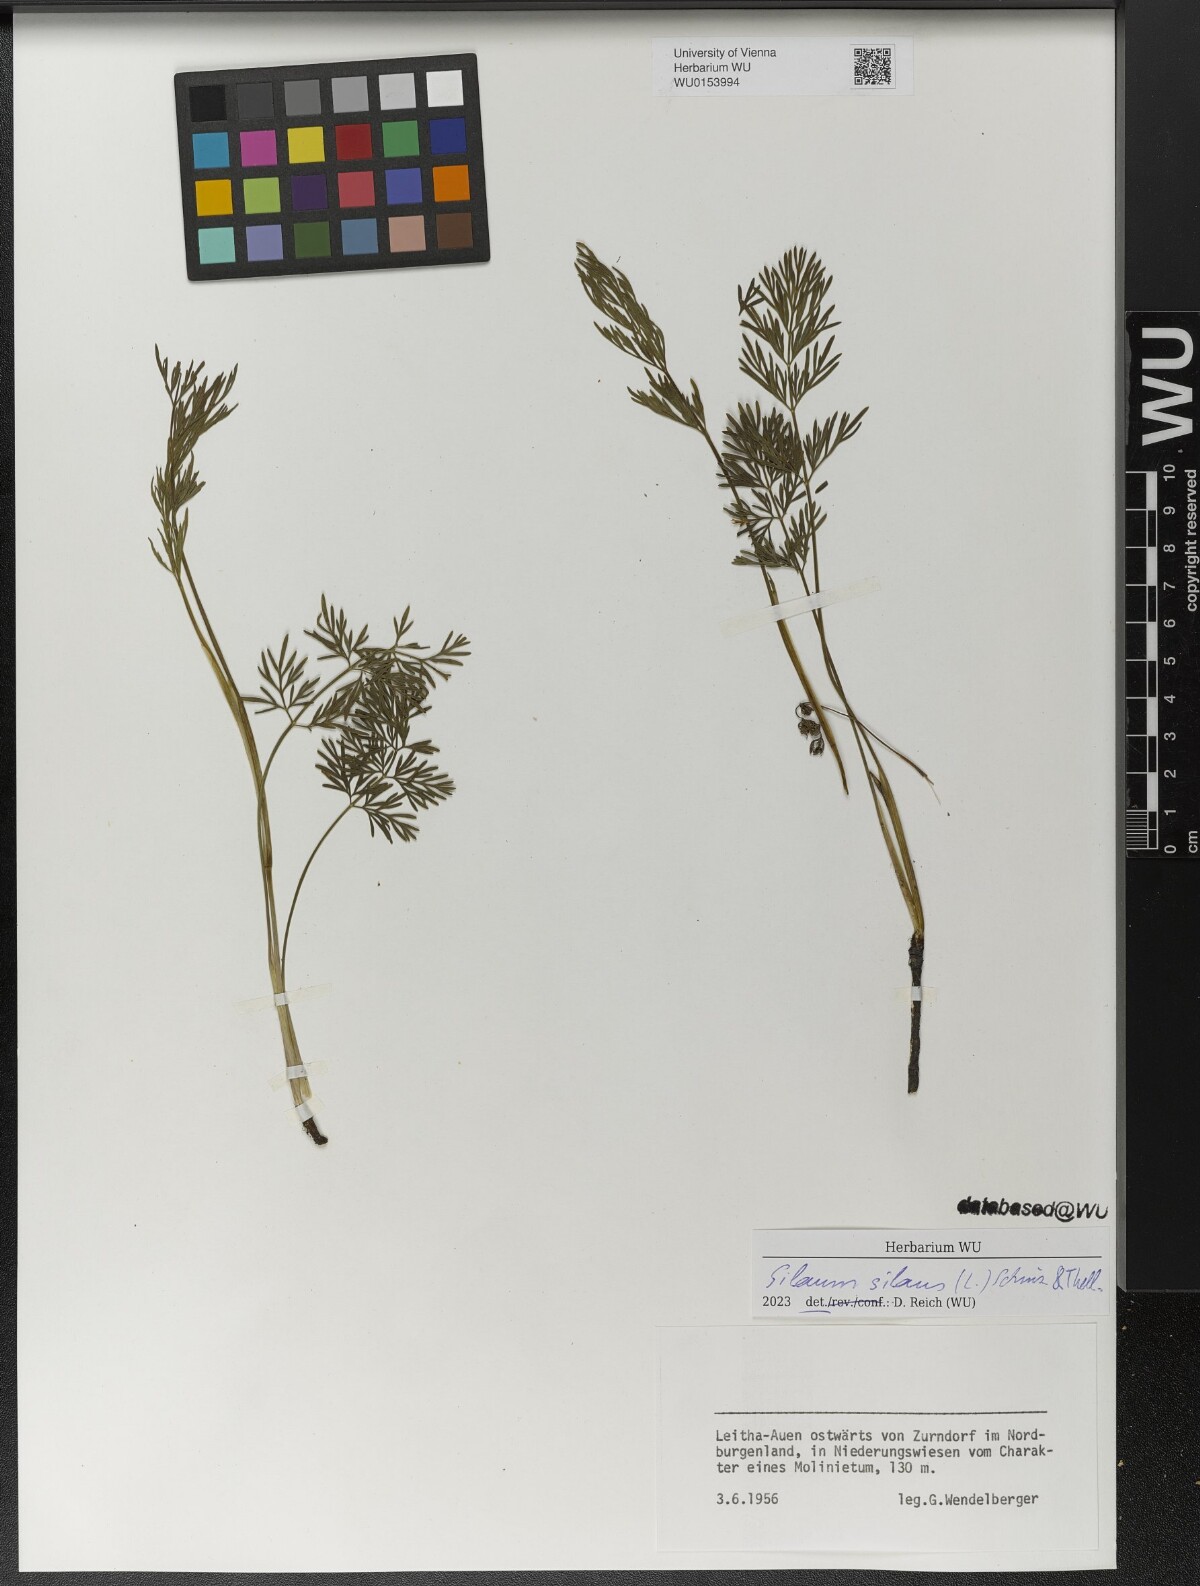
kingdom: Plantae
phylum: Tracheophyta
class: Magnoliopsida
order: Apiales
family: Apiaceae
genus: Silaum
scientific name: Silaum silaus
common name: Pepper-saxifrage
